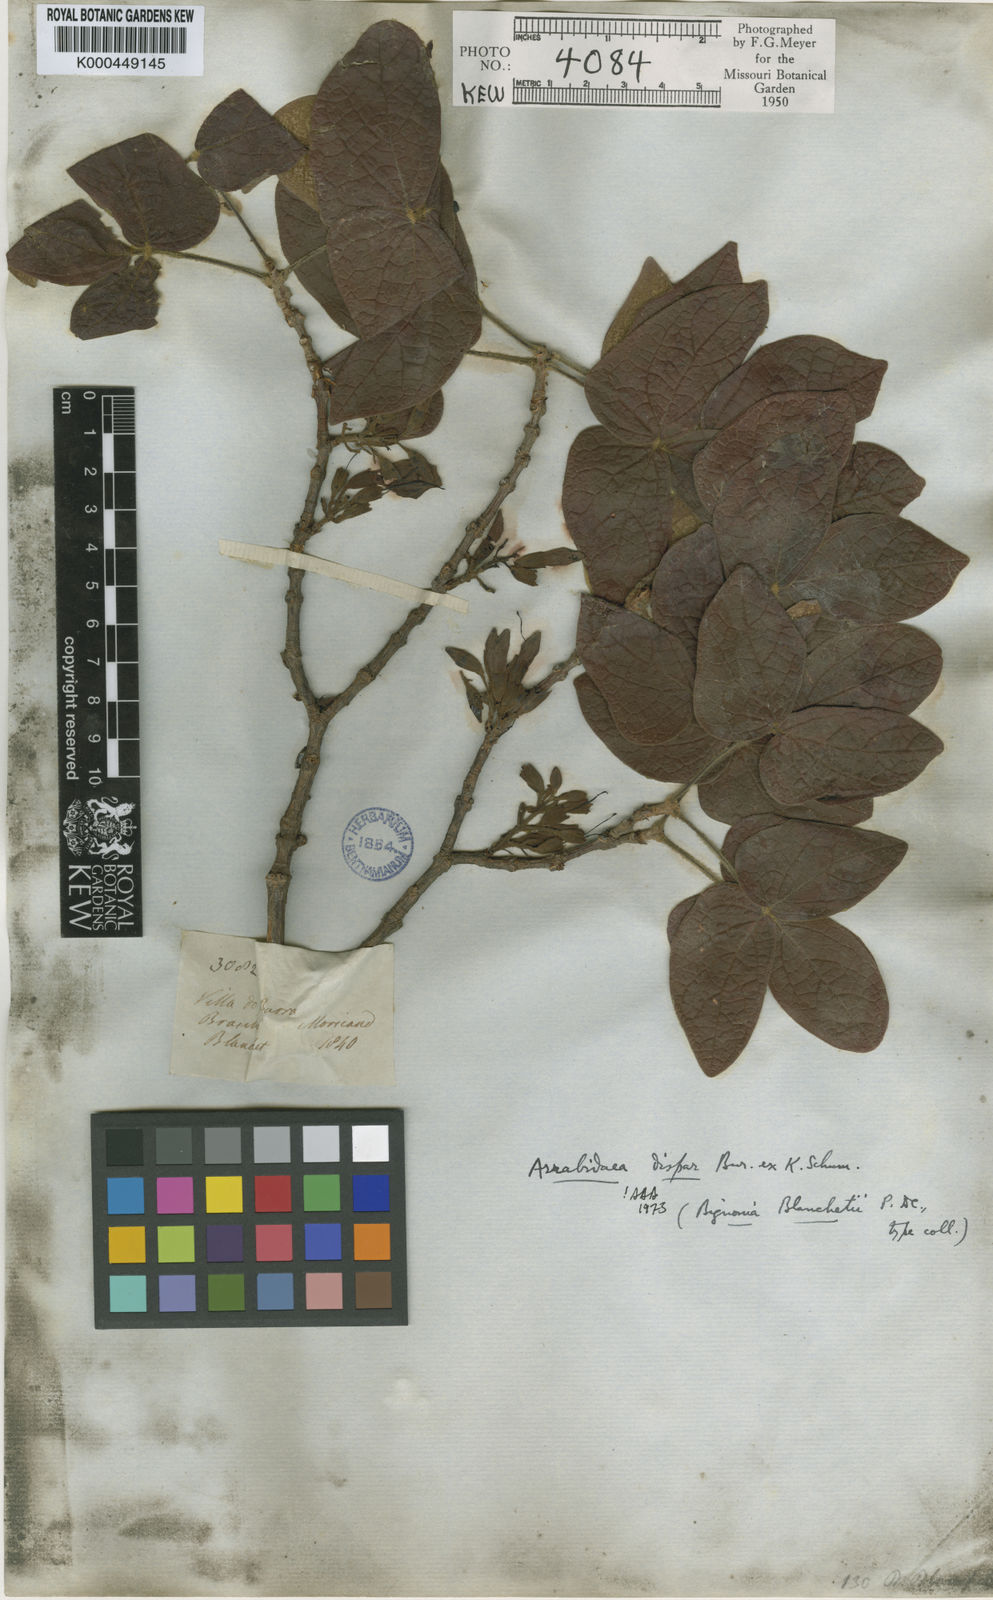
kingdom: Plantae
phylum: Tracheophyta
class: Magnoliopsida
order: Lamiales
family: Bignoniaceae
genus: Fridericia
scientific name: Fridericia dispar
